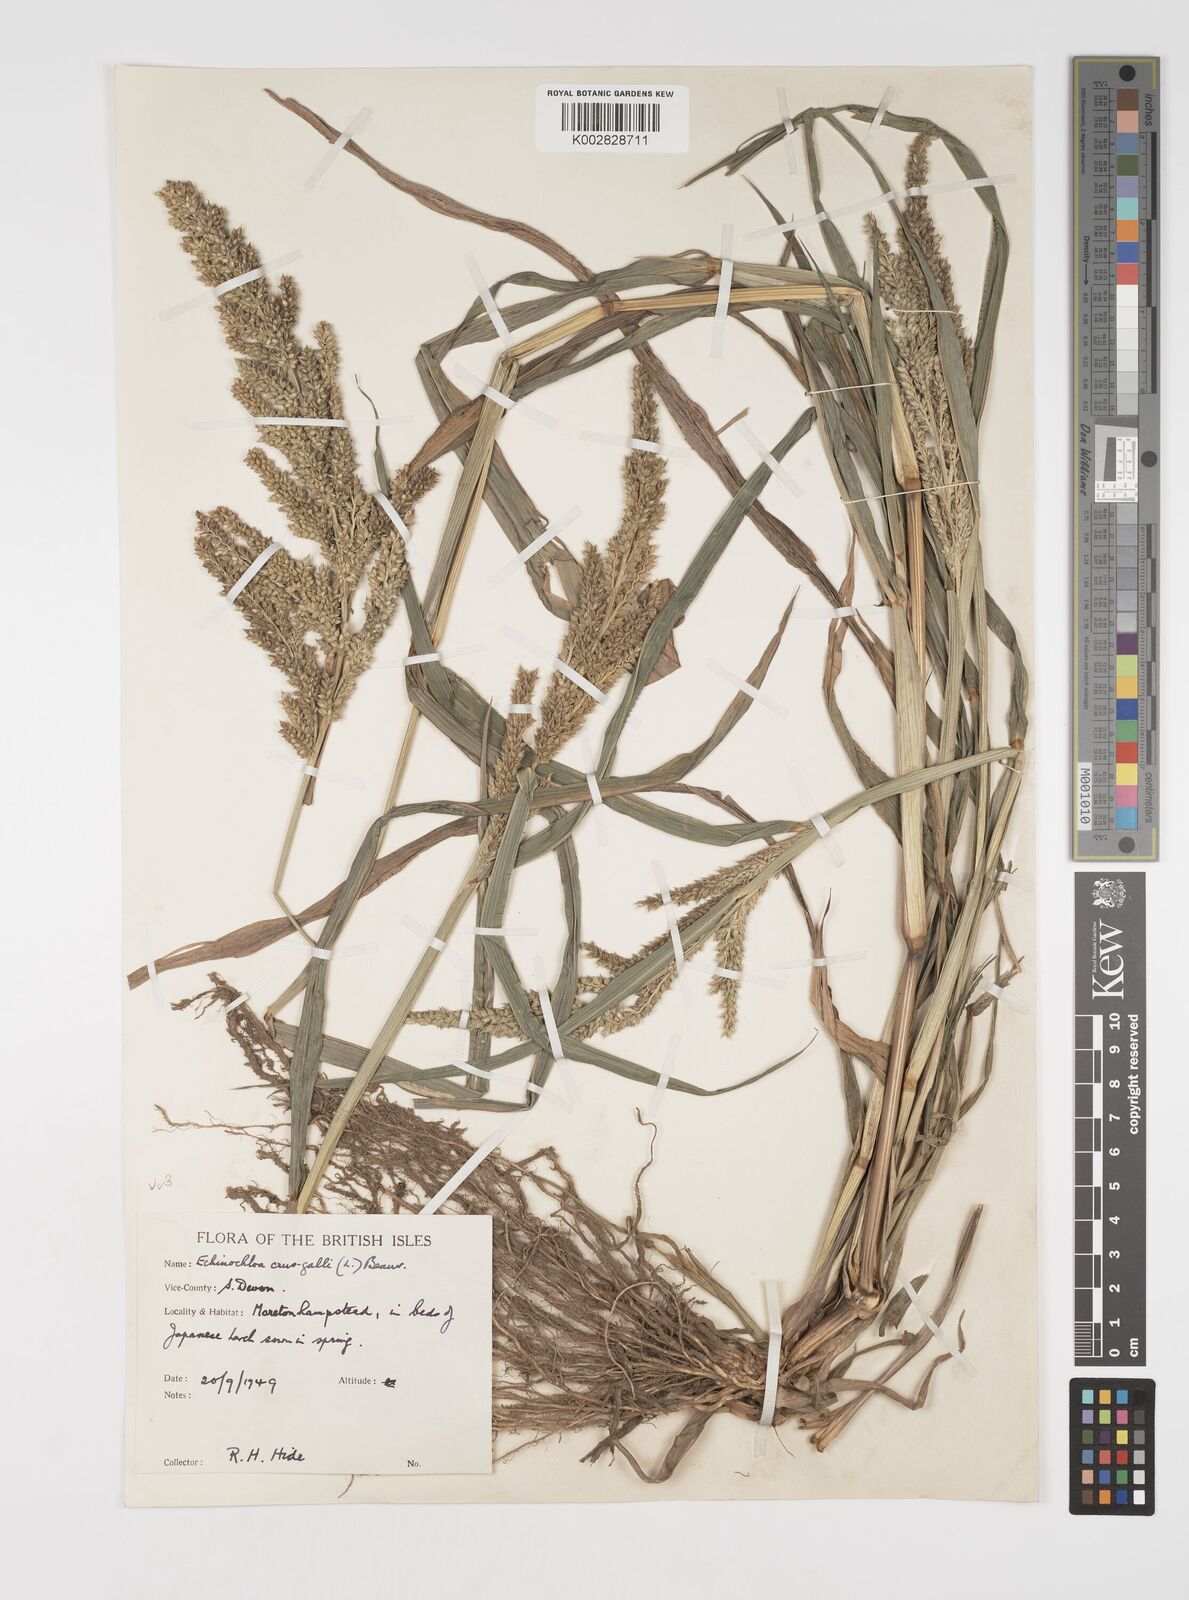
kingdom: Plantae
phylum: Tracheophyta
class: Liliopsida
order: Poales
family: Poaceae
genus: Echinochloa
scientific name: Echinochloa crus-galli
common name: Cockspur
